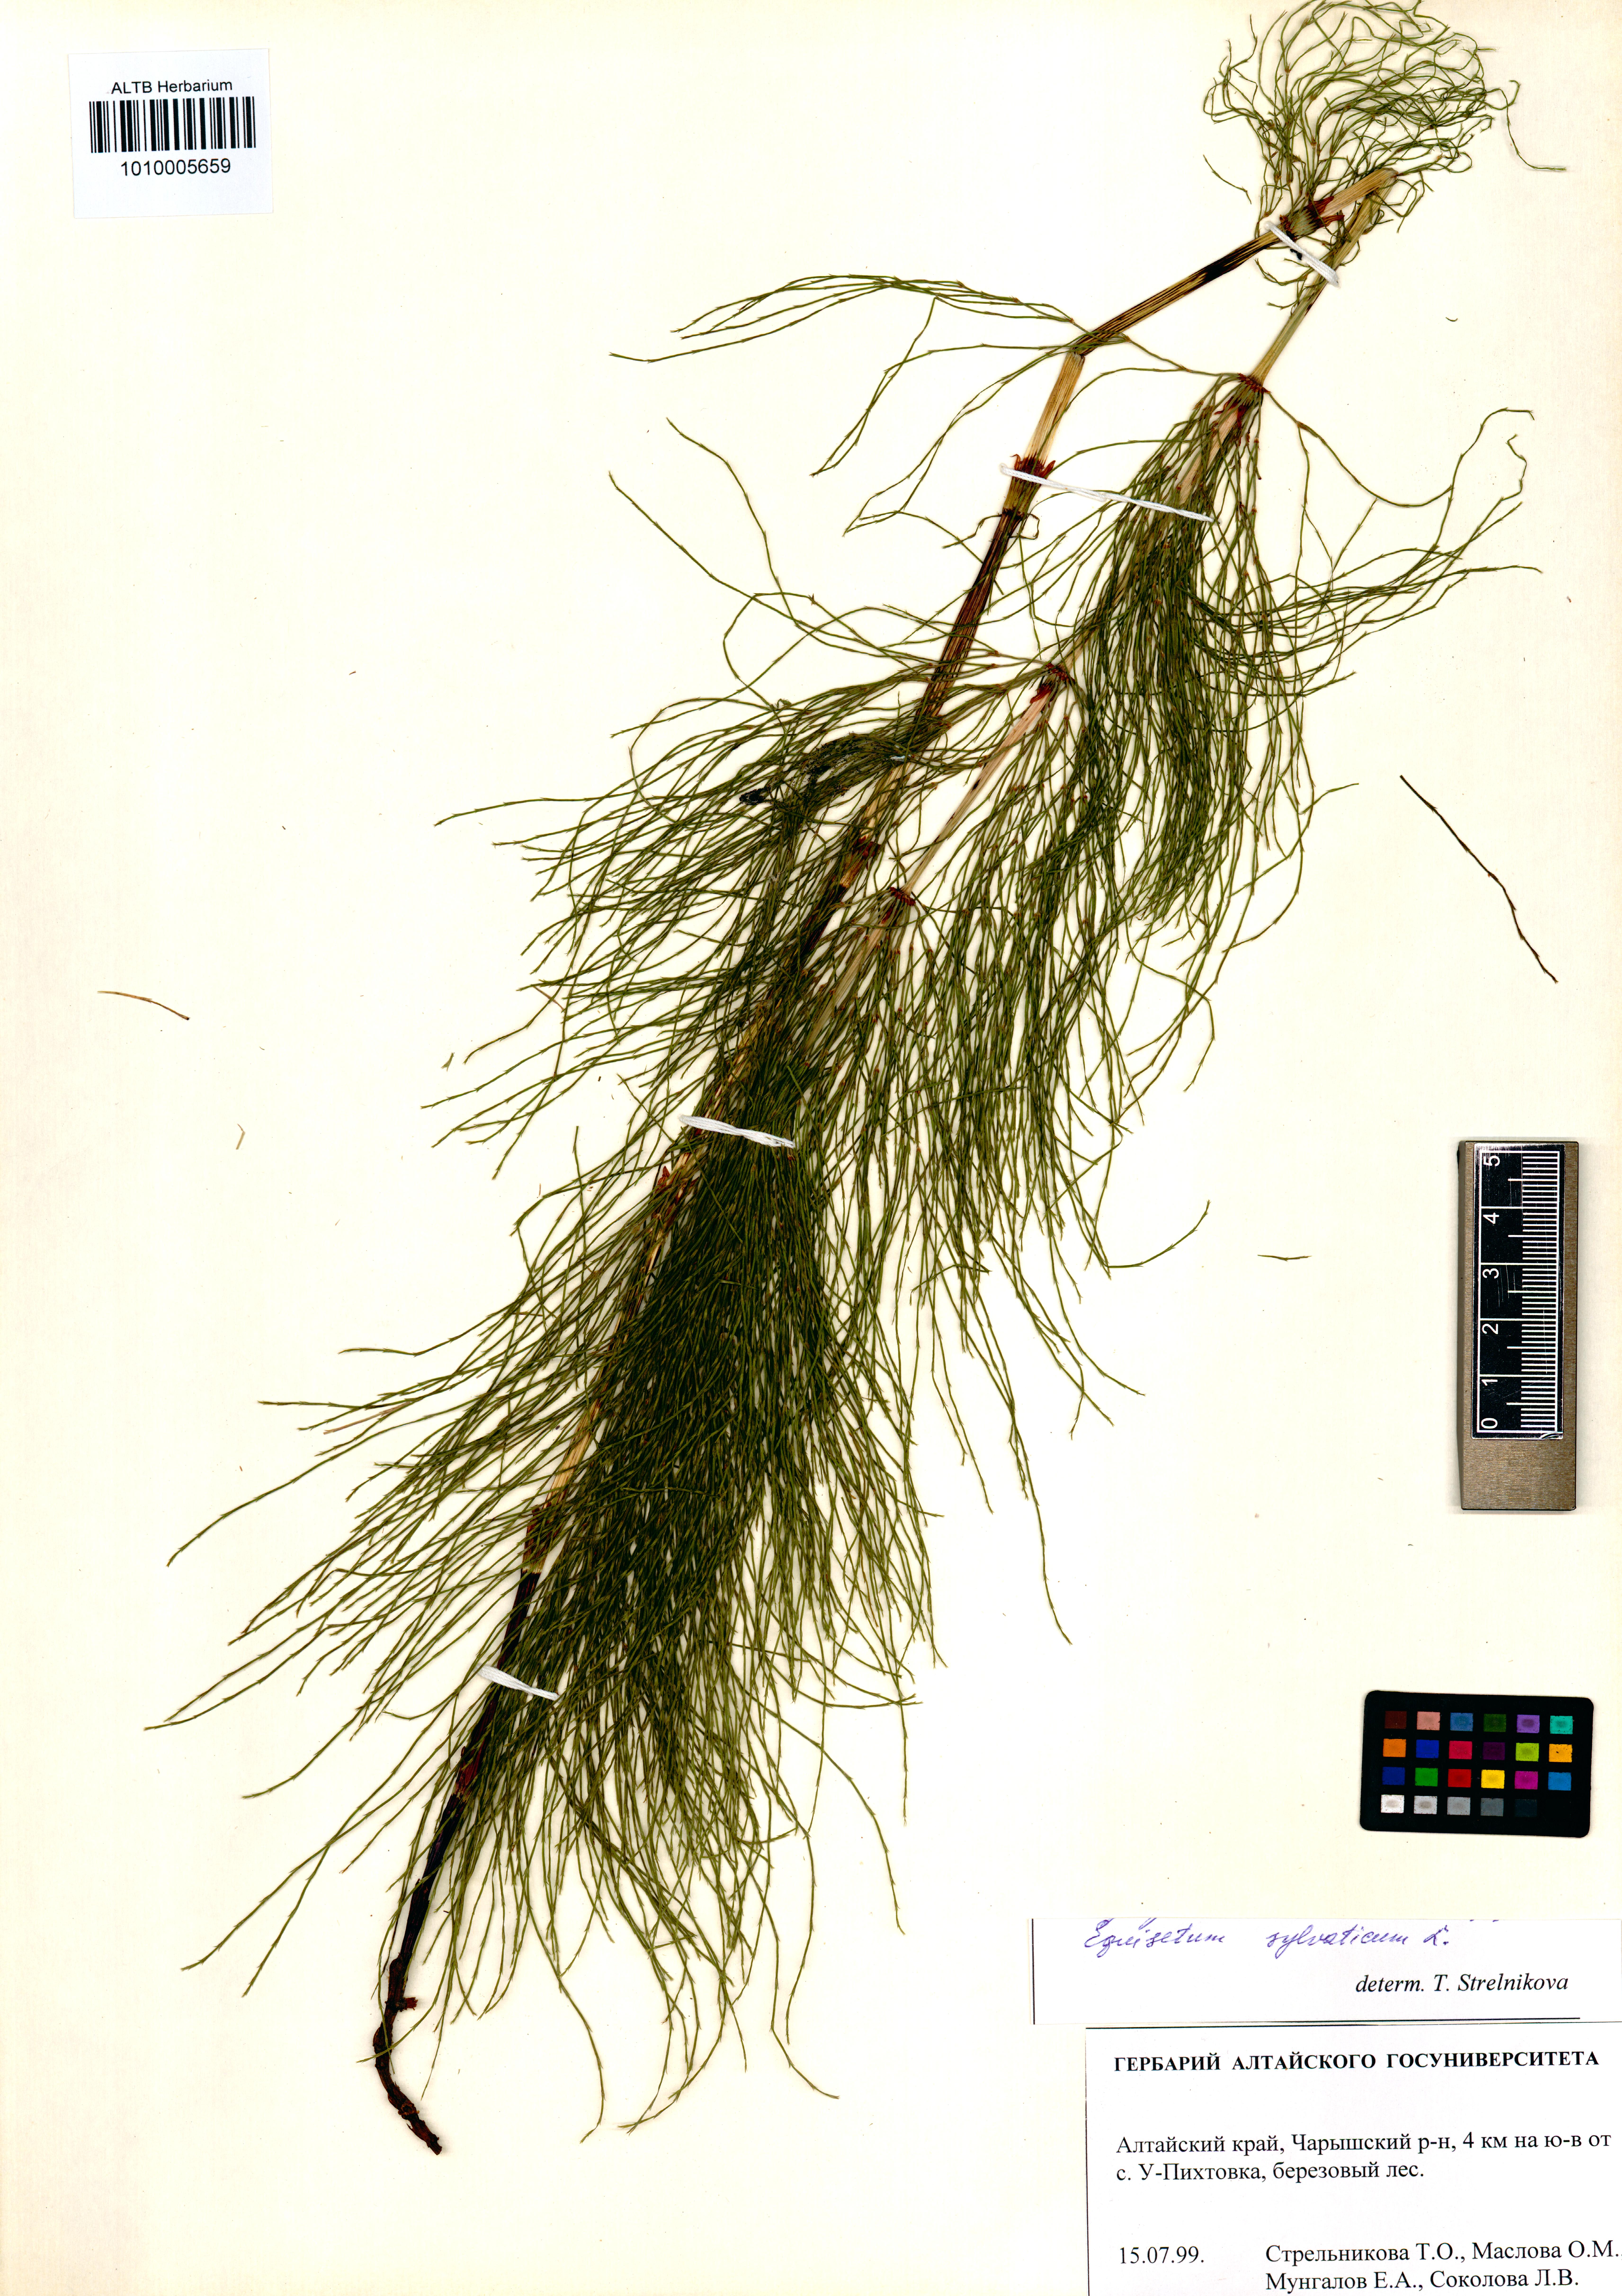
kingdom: Plantae
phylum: Tracheophyta
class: Polypodiopsida
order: Equisetales
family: Equisetaceae
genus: Equisetum
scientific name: Equisetum sylvaticum
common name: Wood horsetail
